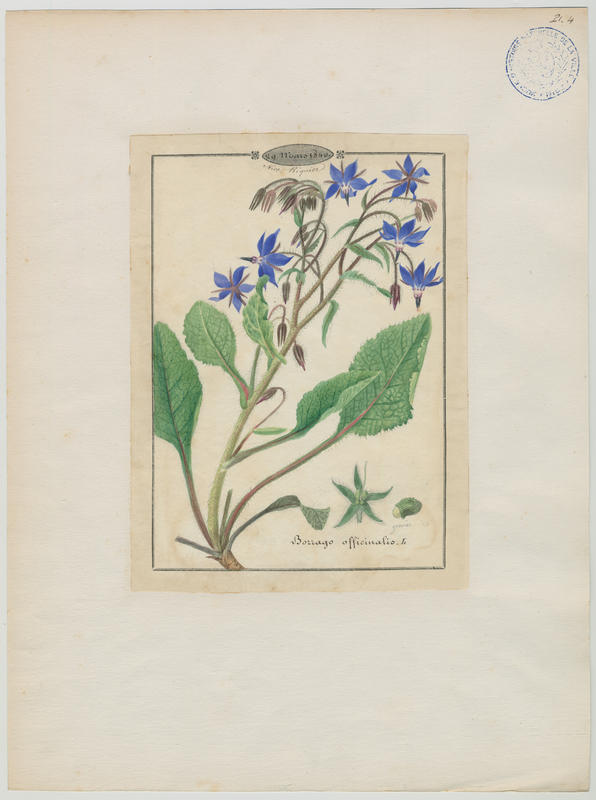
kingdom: Plantae
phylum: Tracheophyta
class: Magnoliopsida
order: Boraginales
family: Boraginaceae
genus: Borago
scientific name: Borago officinalis
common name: Borage
